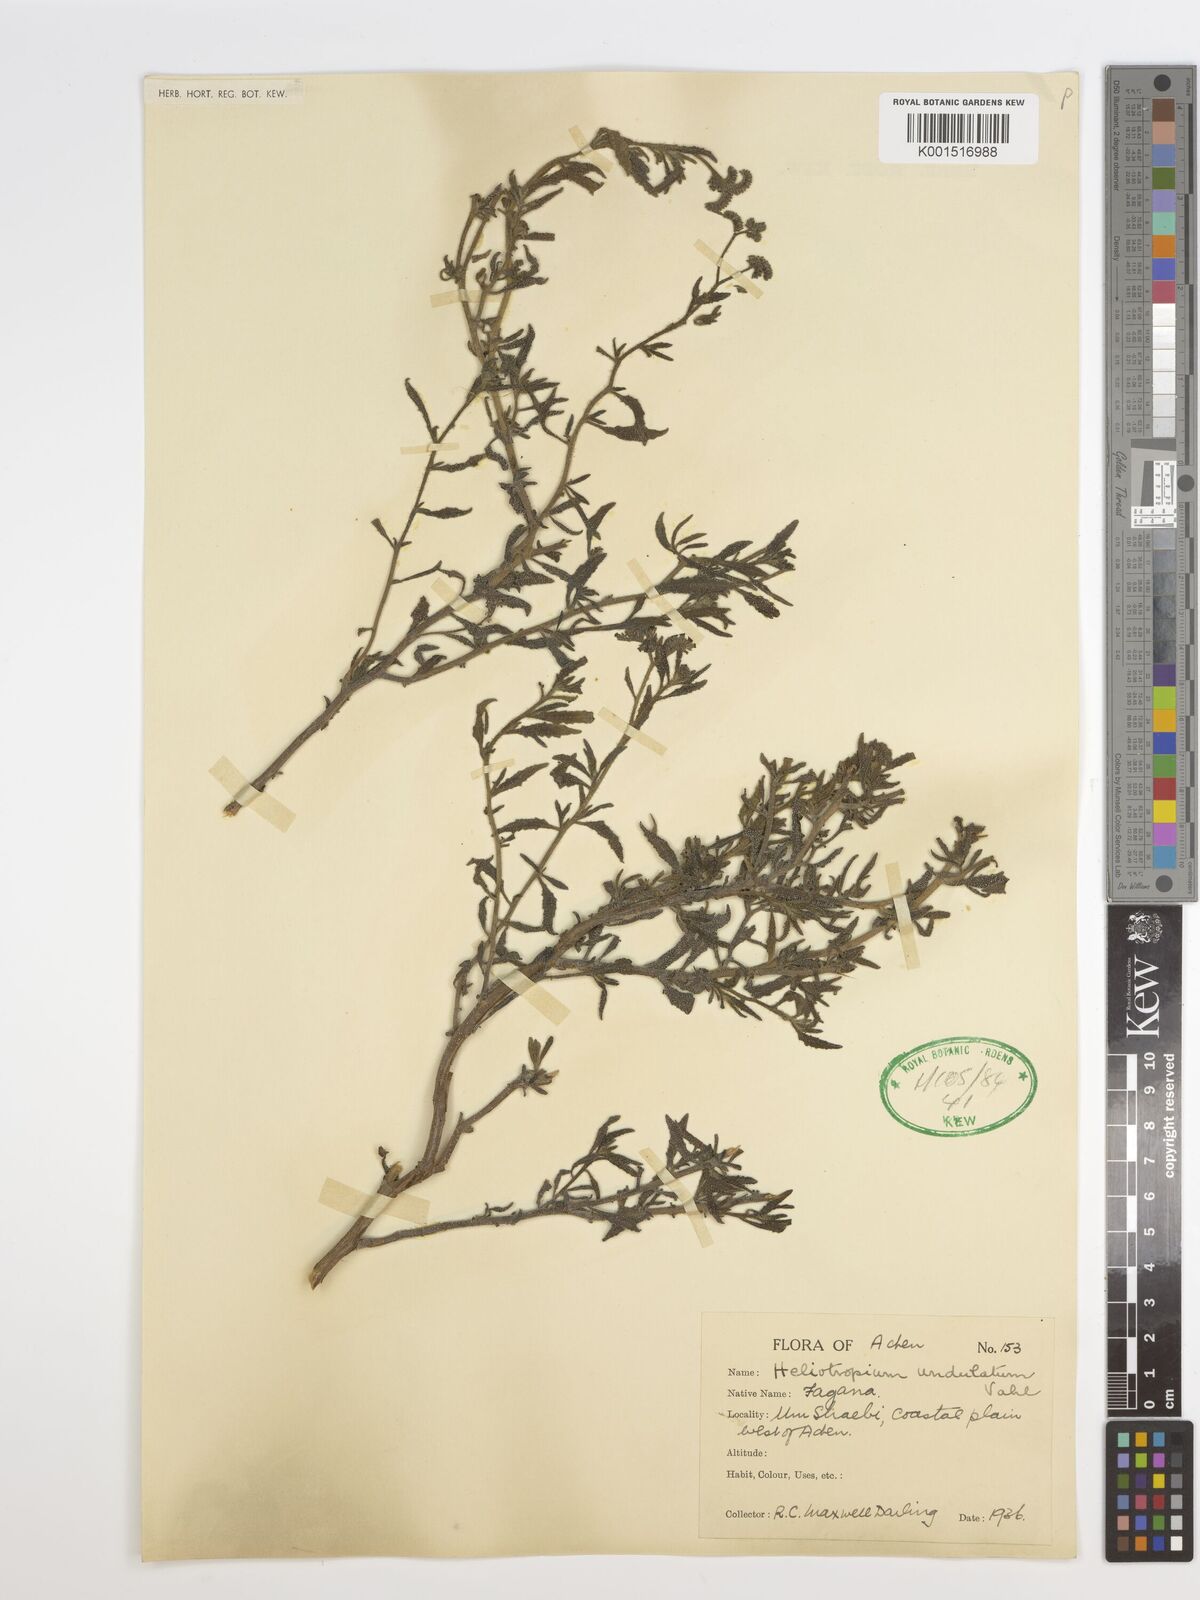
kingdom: Plantae
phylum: Tracheophyta
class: Magnoliopsida
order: Boraginales
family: Heliotropiaceae
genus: Heliotropium
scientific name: Heliotropium bacciferum
